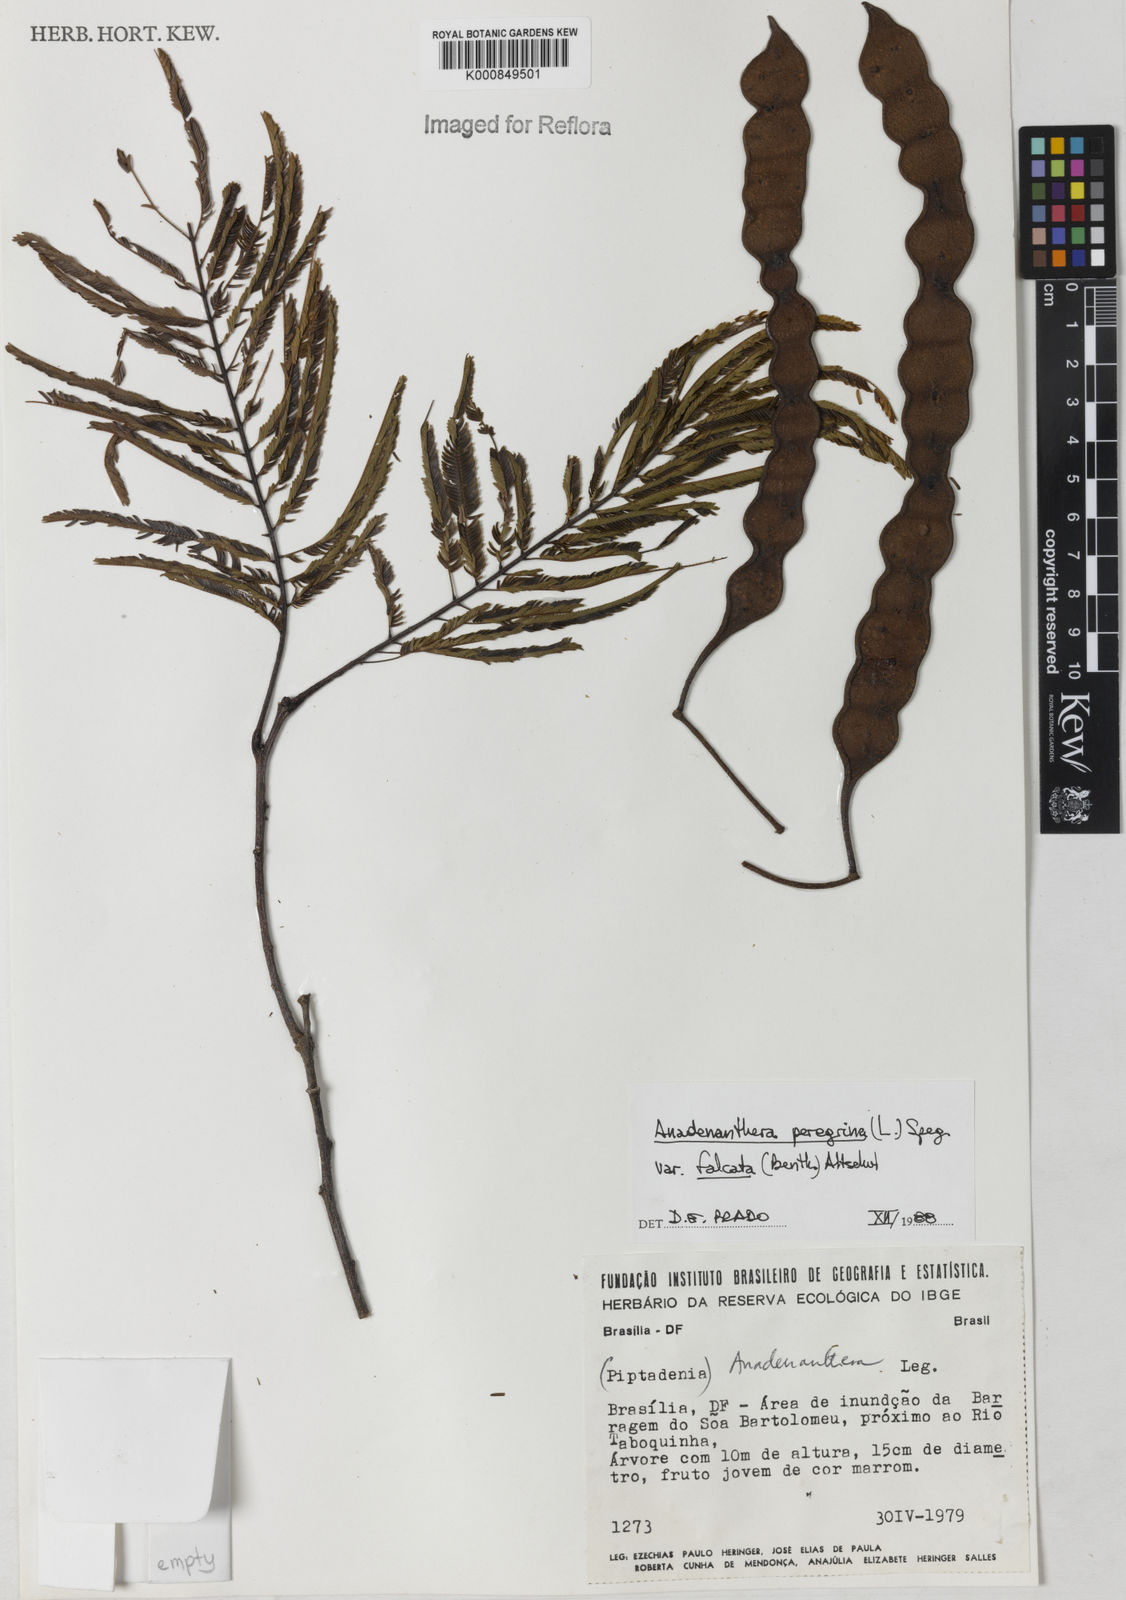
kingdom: Plantae
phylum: Tracheophyta
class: Magnoliopsida
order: Fabales
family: Fabaceae
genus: Anadenanthera
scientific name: Anadenanthera peregrina
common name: Cohoba
